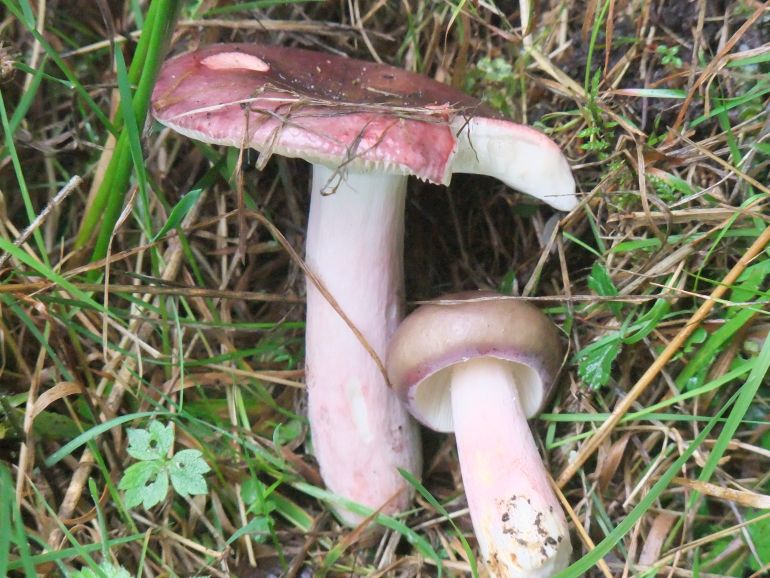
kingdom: Fungi
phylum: Basidiomycota
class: Agaricomycetes
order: Russulales
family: Russulaceae
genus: Russula
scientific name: Russula queletii
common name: Quélets skørhat
